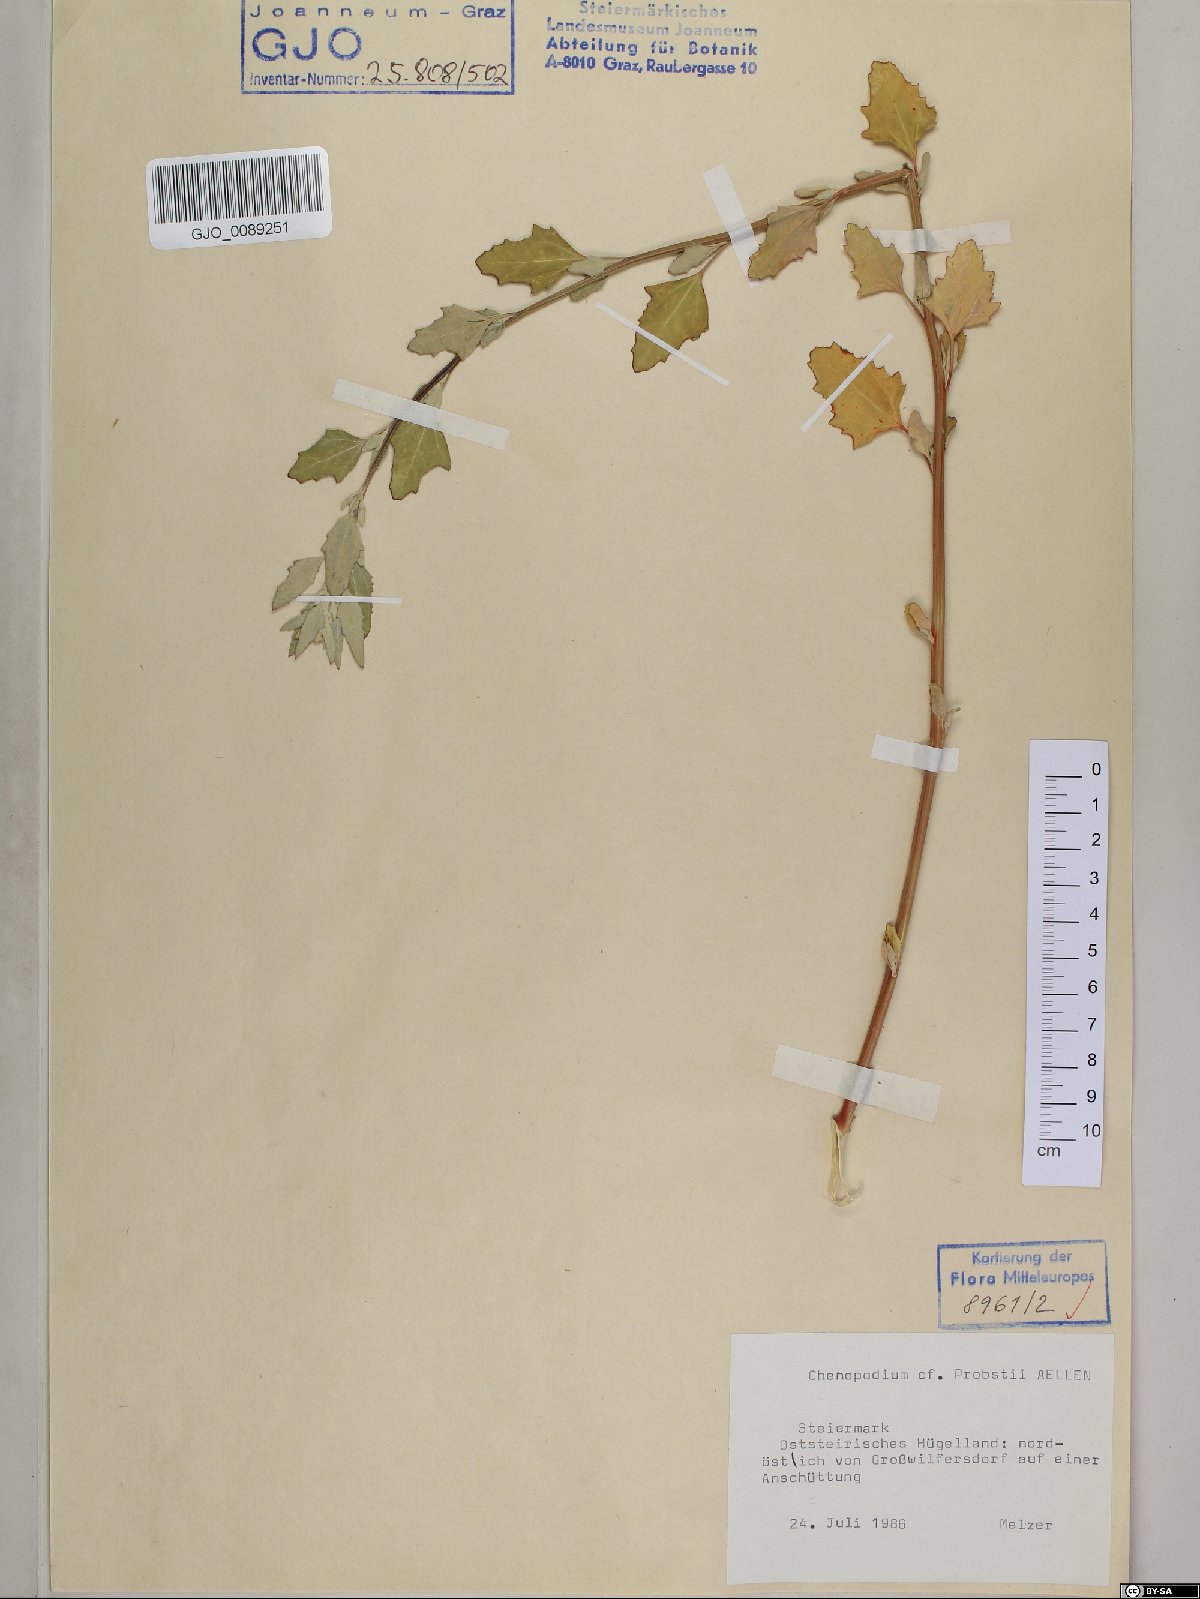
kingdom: Plantae
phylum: Tracheophyta
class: Magnoliopsida
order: Caryophyllales
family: Amaranthaceae
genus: Chenopodium
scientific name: Chenopodium probstii
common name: Probst's goosefoot
